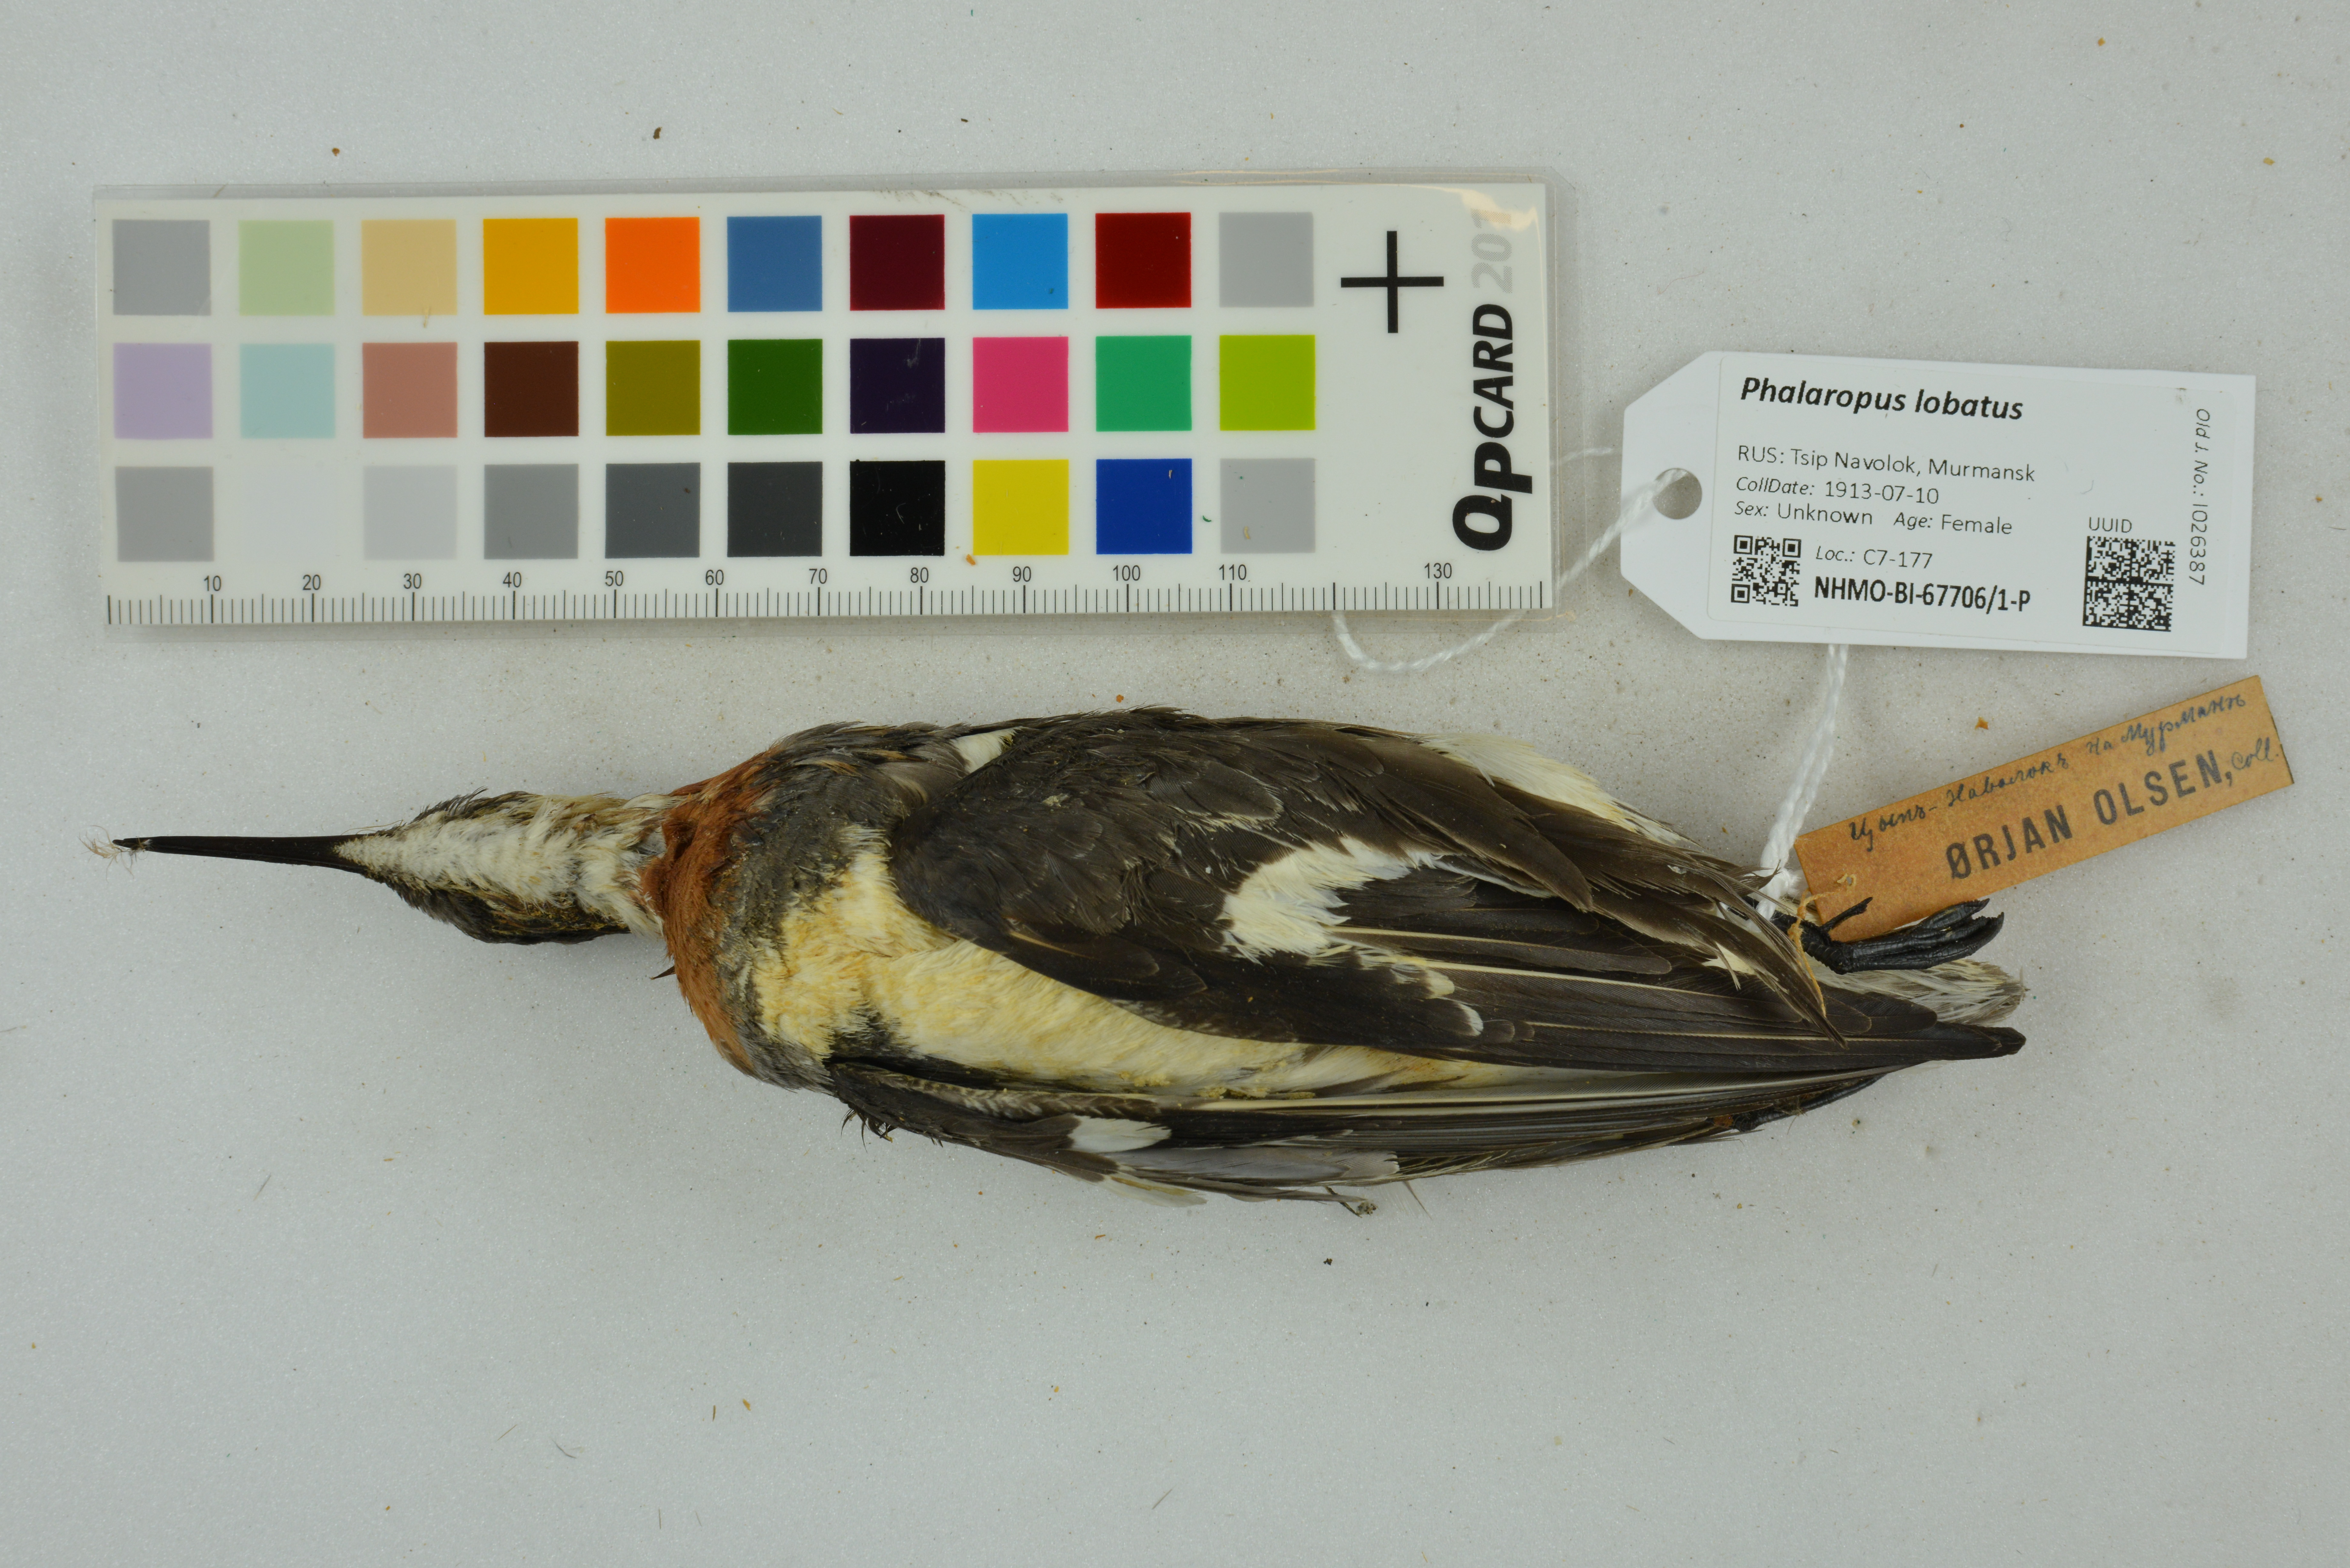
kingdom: Animalia
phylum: Chordata
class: Aves
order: Charadriiformes
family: Scolopacidae
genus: Phalaropus
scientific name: Phalaropus lobatus
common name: Red-necked phalarope
